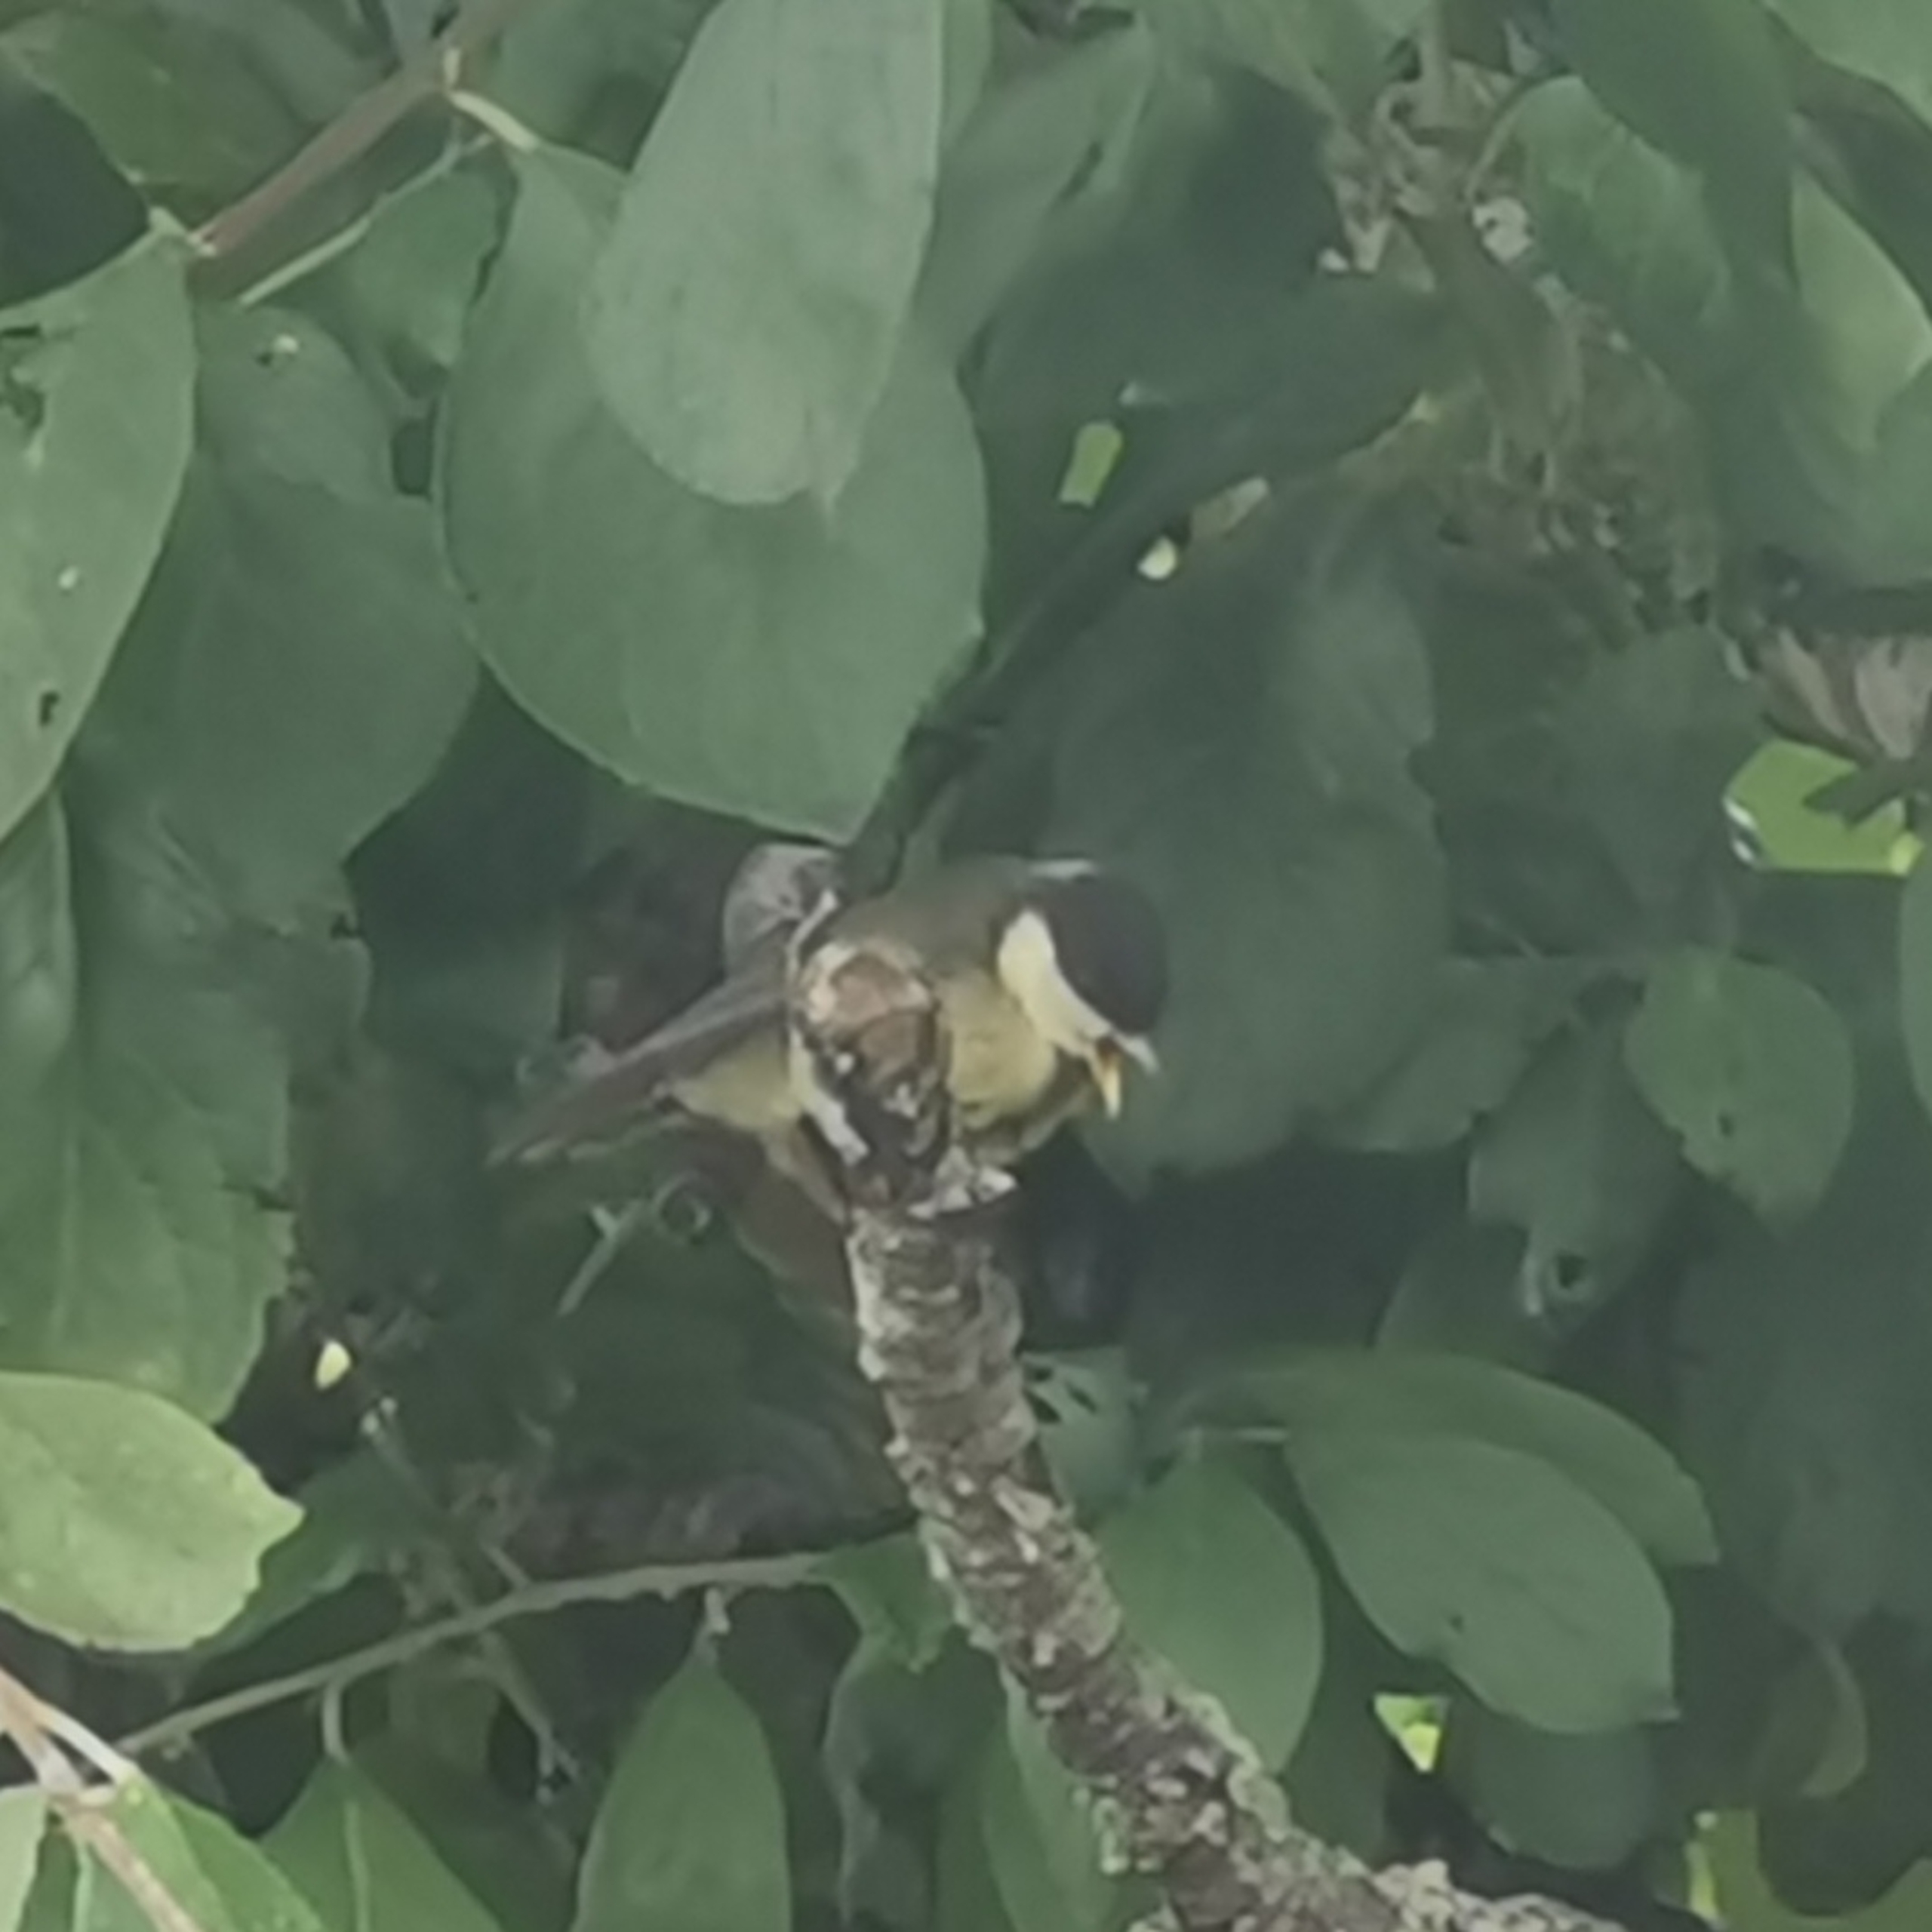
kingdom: Animalia
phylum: Chordata
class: Aves
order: Passeriformes
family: Paridae
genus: Parus
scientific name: Parus major
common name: Musvit
